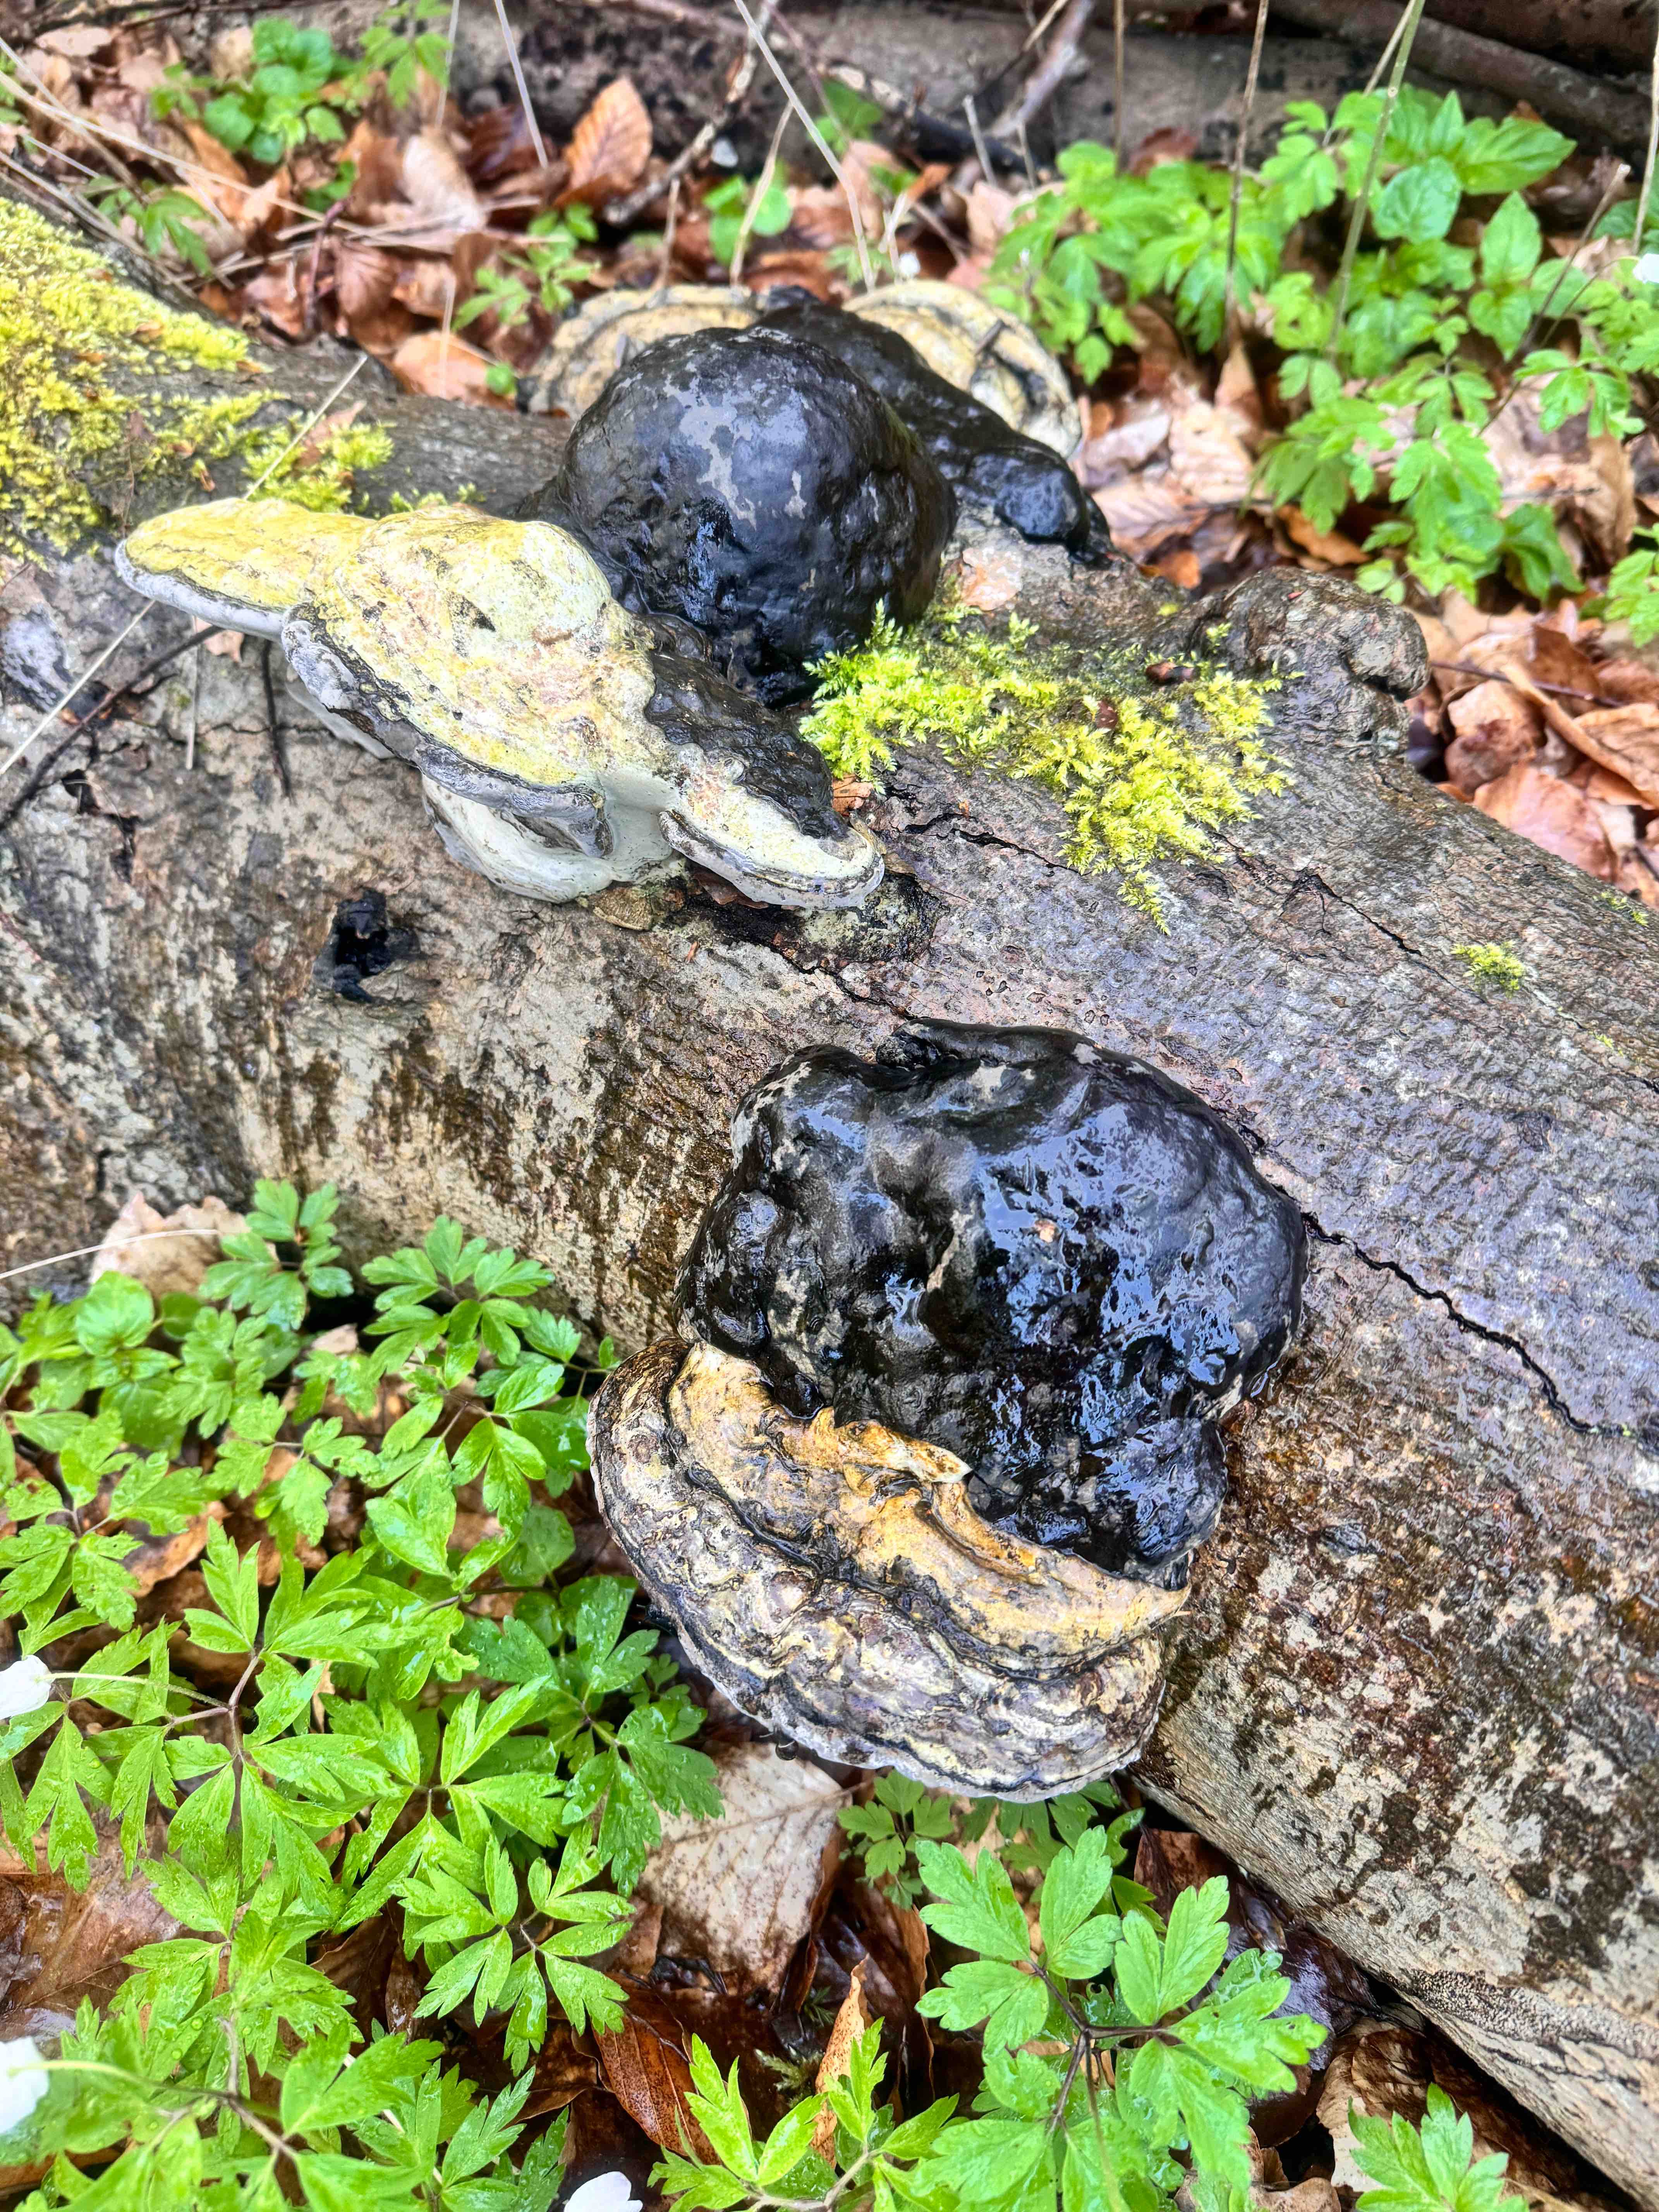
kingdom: Fungi
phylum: Basidiomycota
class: Agaricomycetes
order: Polyporales
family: Polyporaceae
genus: Fomes
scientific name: Fomes fomentarius
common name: tøndersvamp
